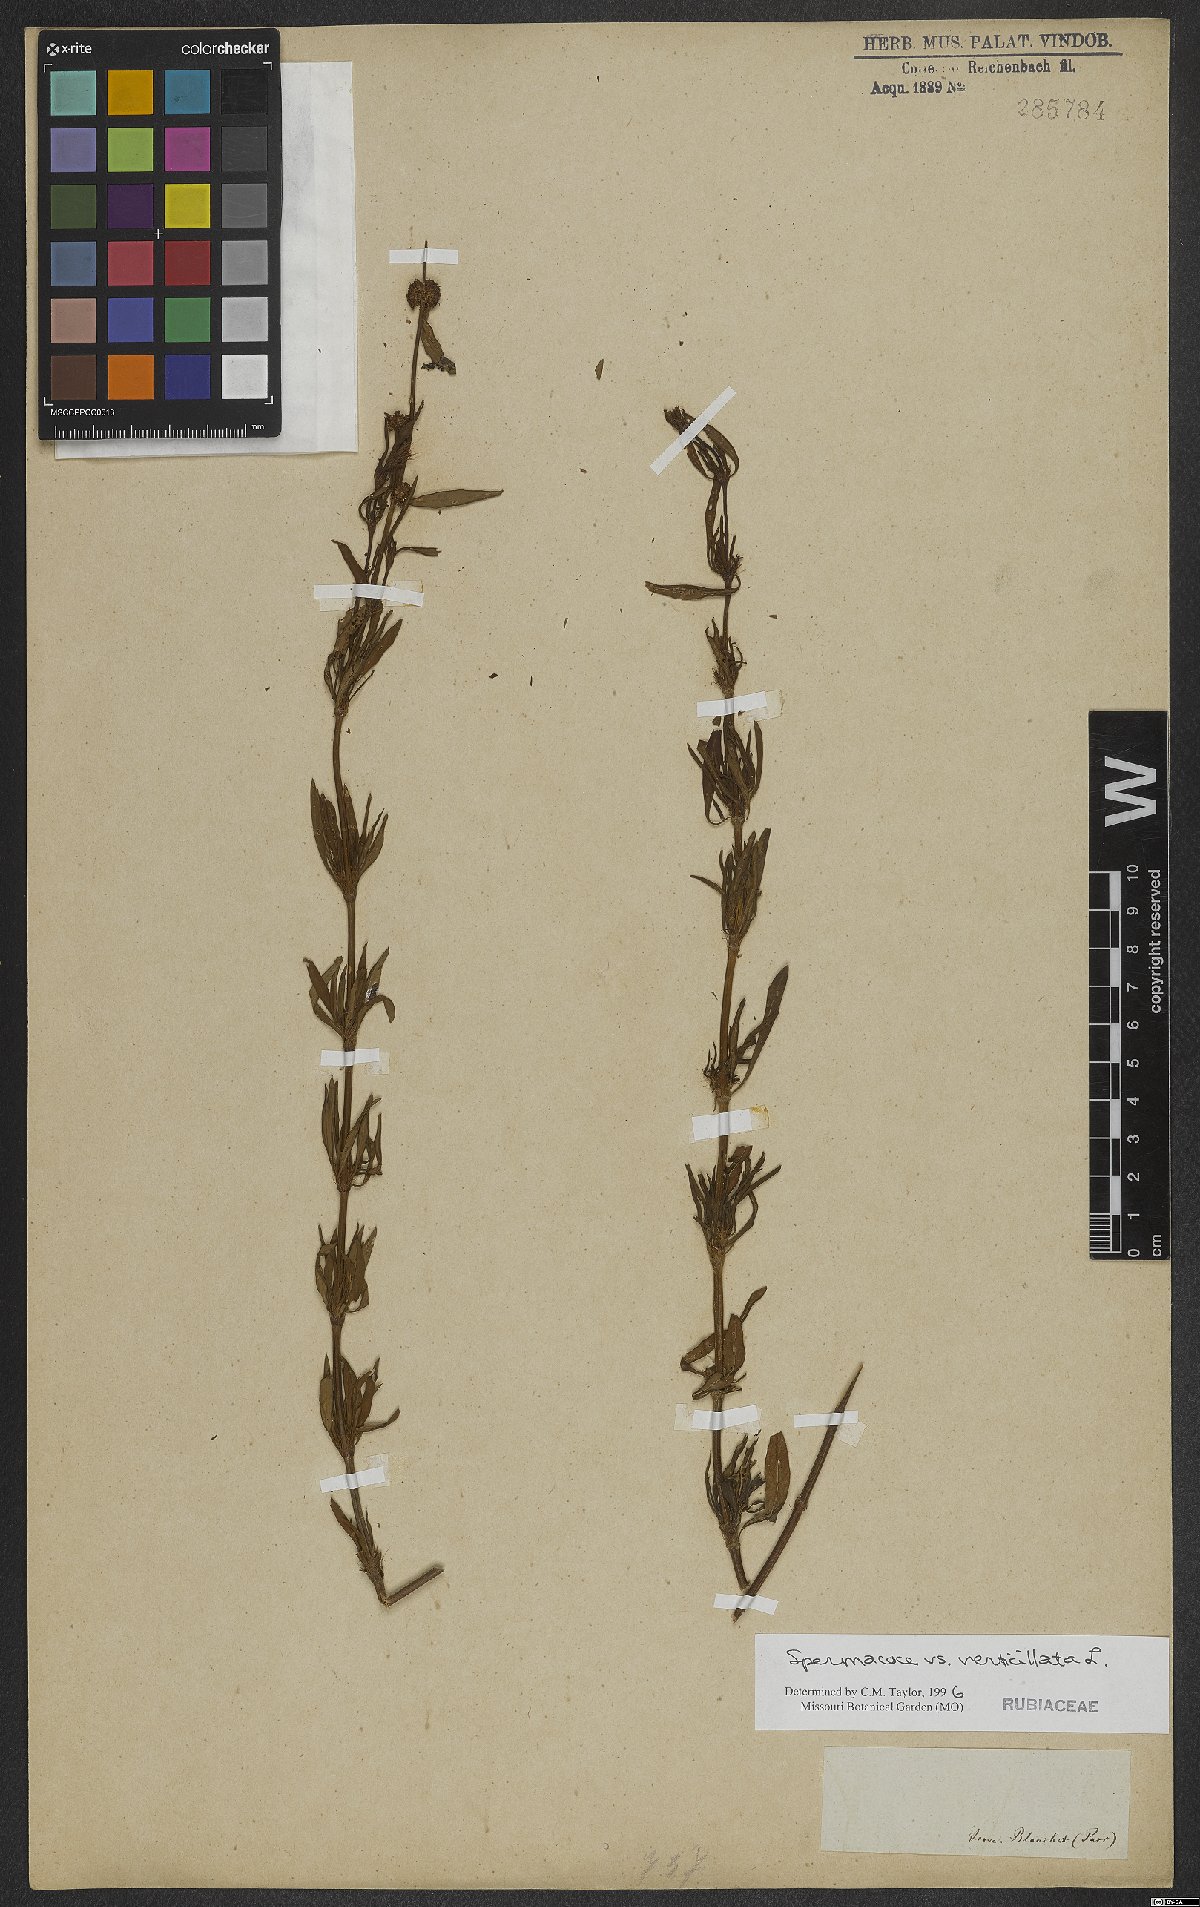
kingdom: Plantae
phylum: Tracheophyta
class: Magnoliopsida
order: Gentianales
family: Rubiaceae
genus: Spermacoce
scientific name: Spermacoce verticillata
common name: Shrubby false buttonweed
